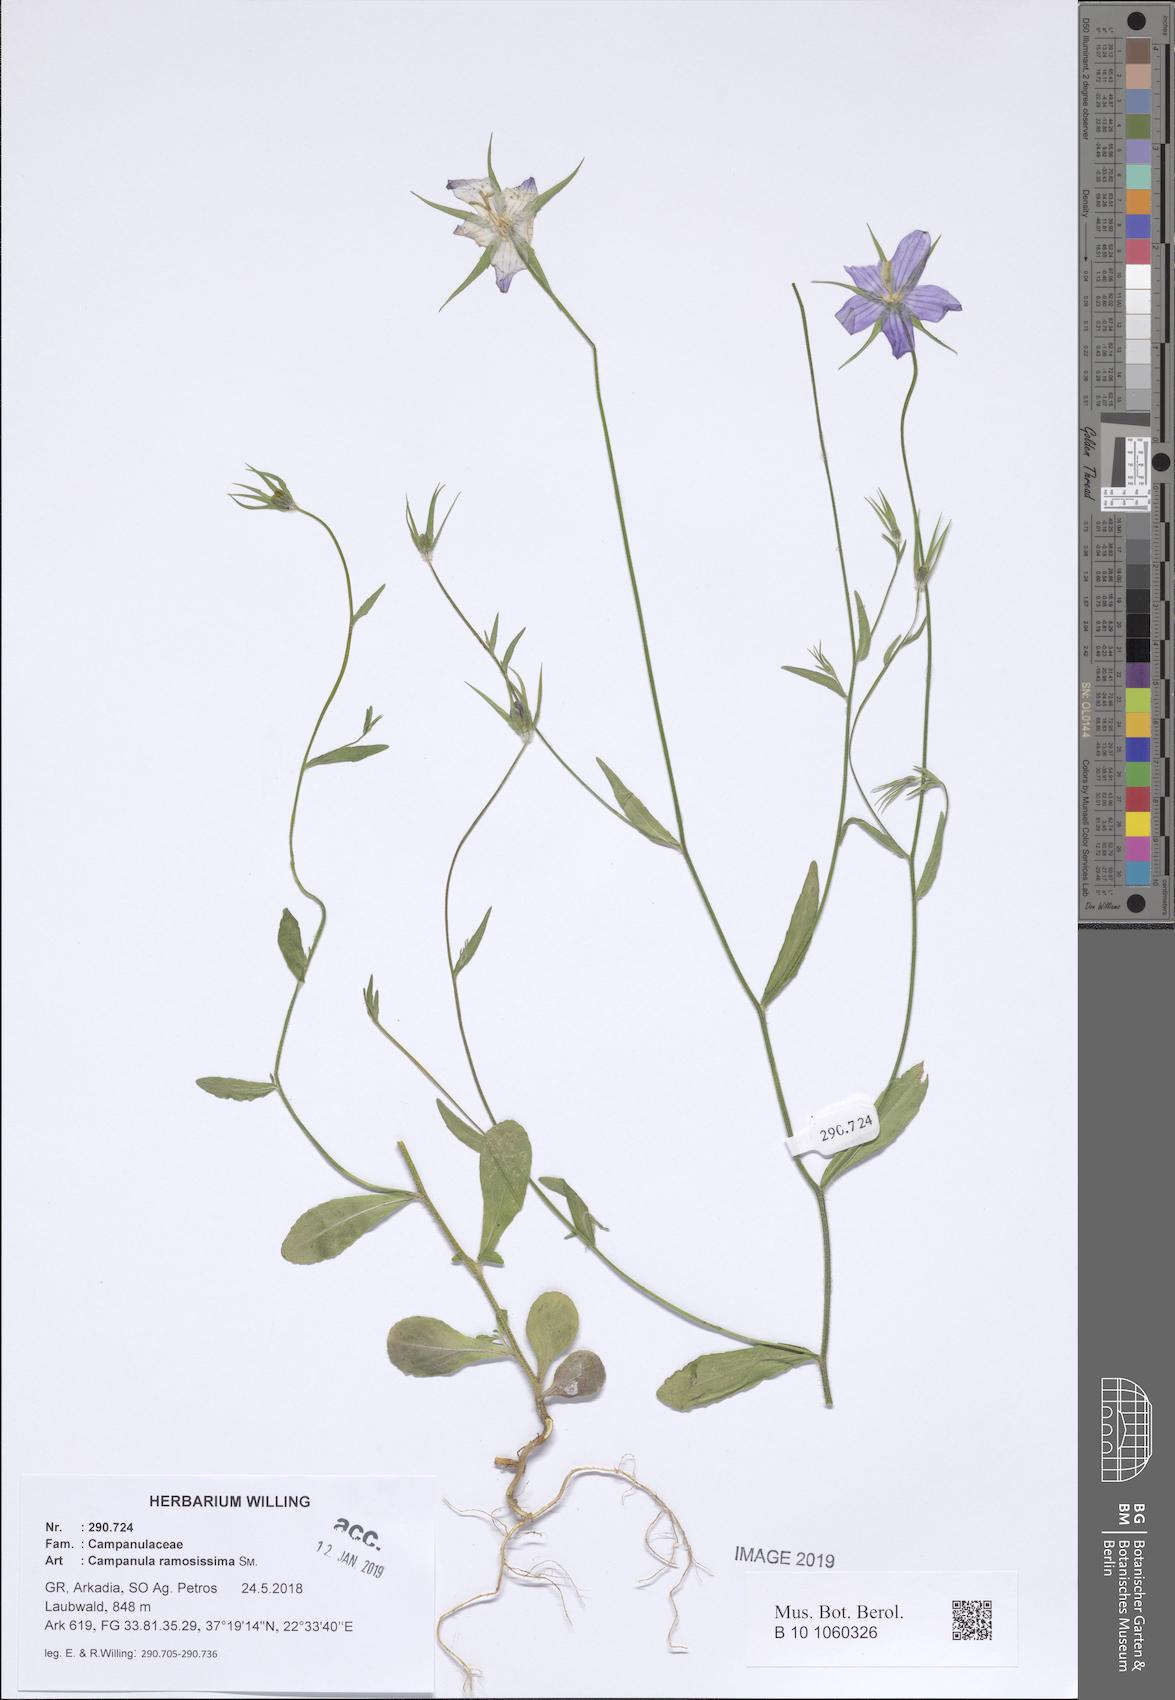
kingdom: Plantae
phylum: Tracheophyta
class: Magnoliopsida
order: Asterales
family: Campanulaceae
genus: Campanula
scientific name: Campanula ramosissima
